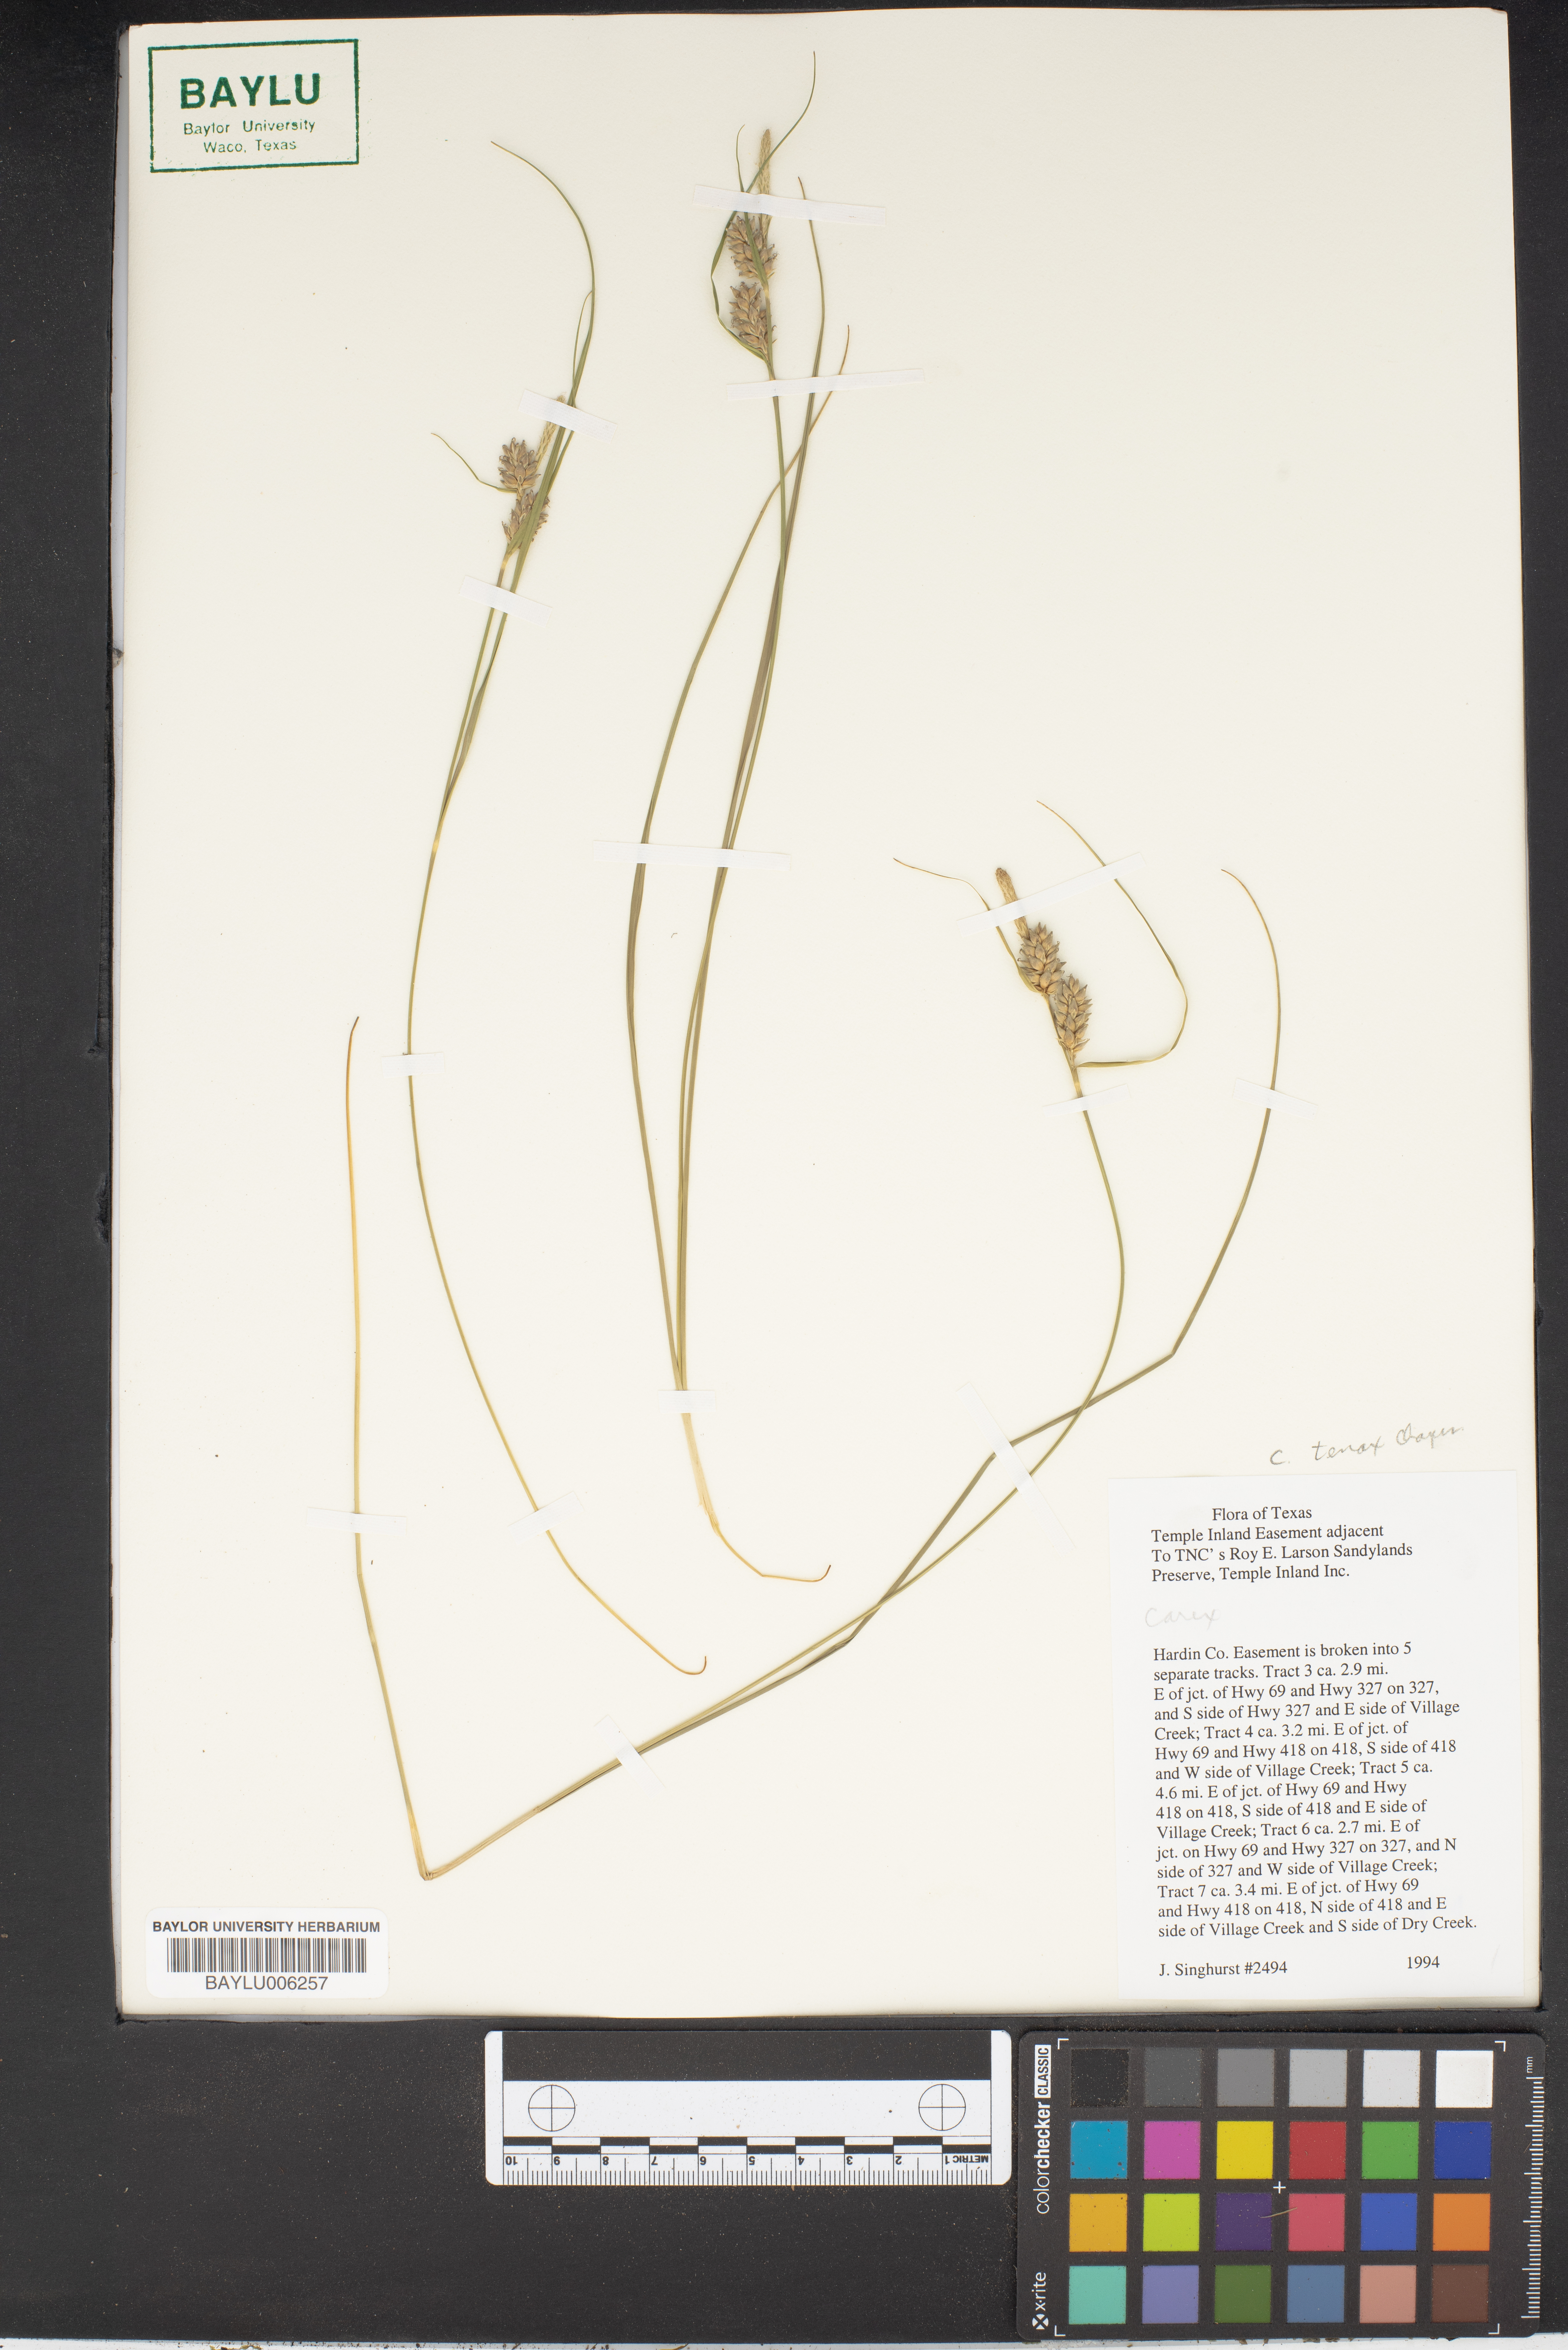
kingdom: Plantae
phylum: Tracheophyta
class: Liliopsida
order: Poales
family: Cyperaceae
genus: Carex
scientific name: Carex
